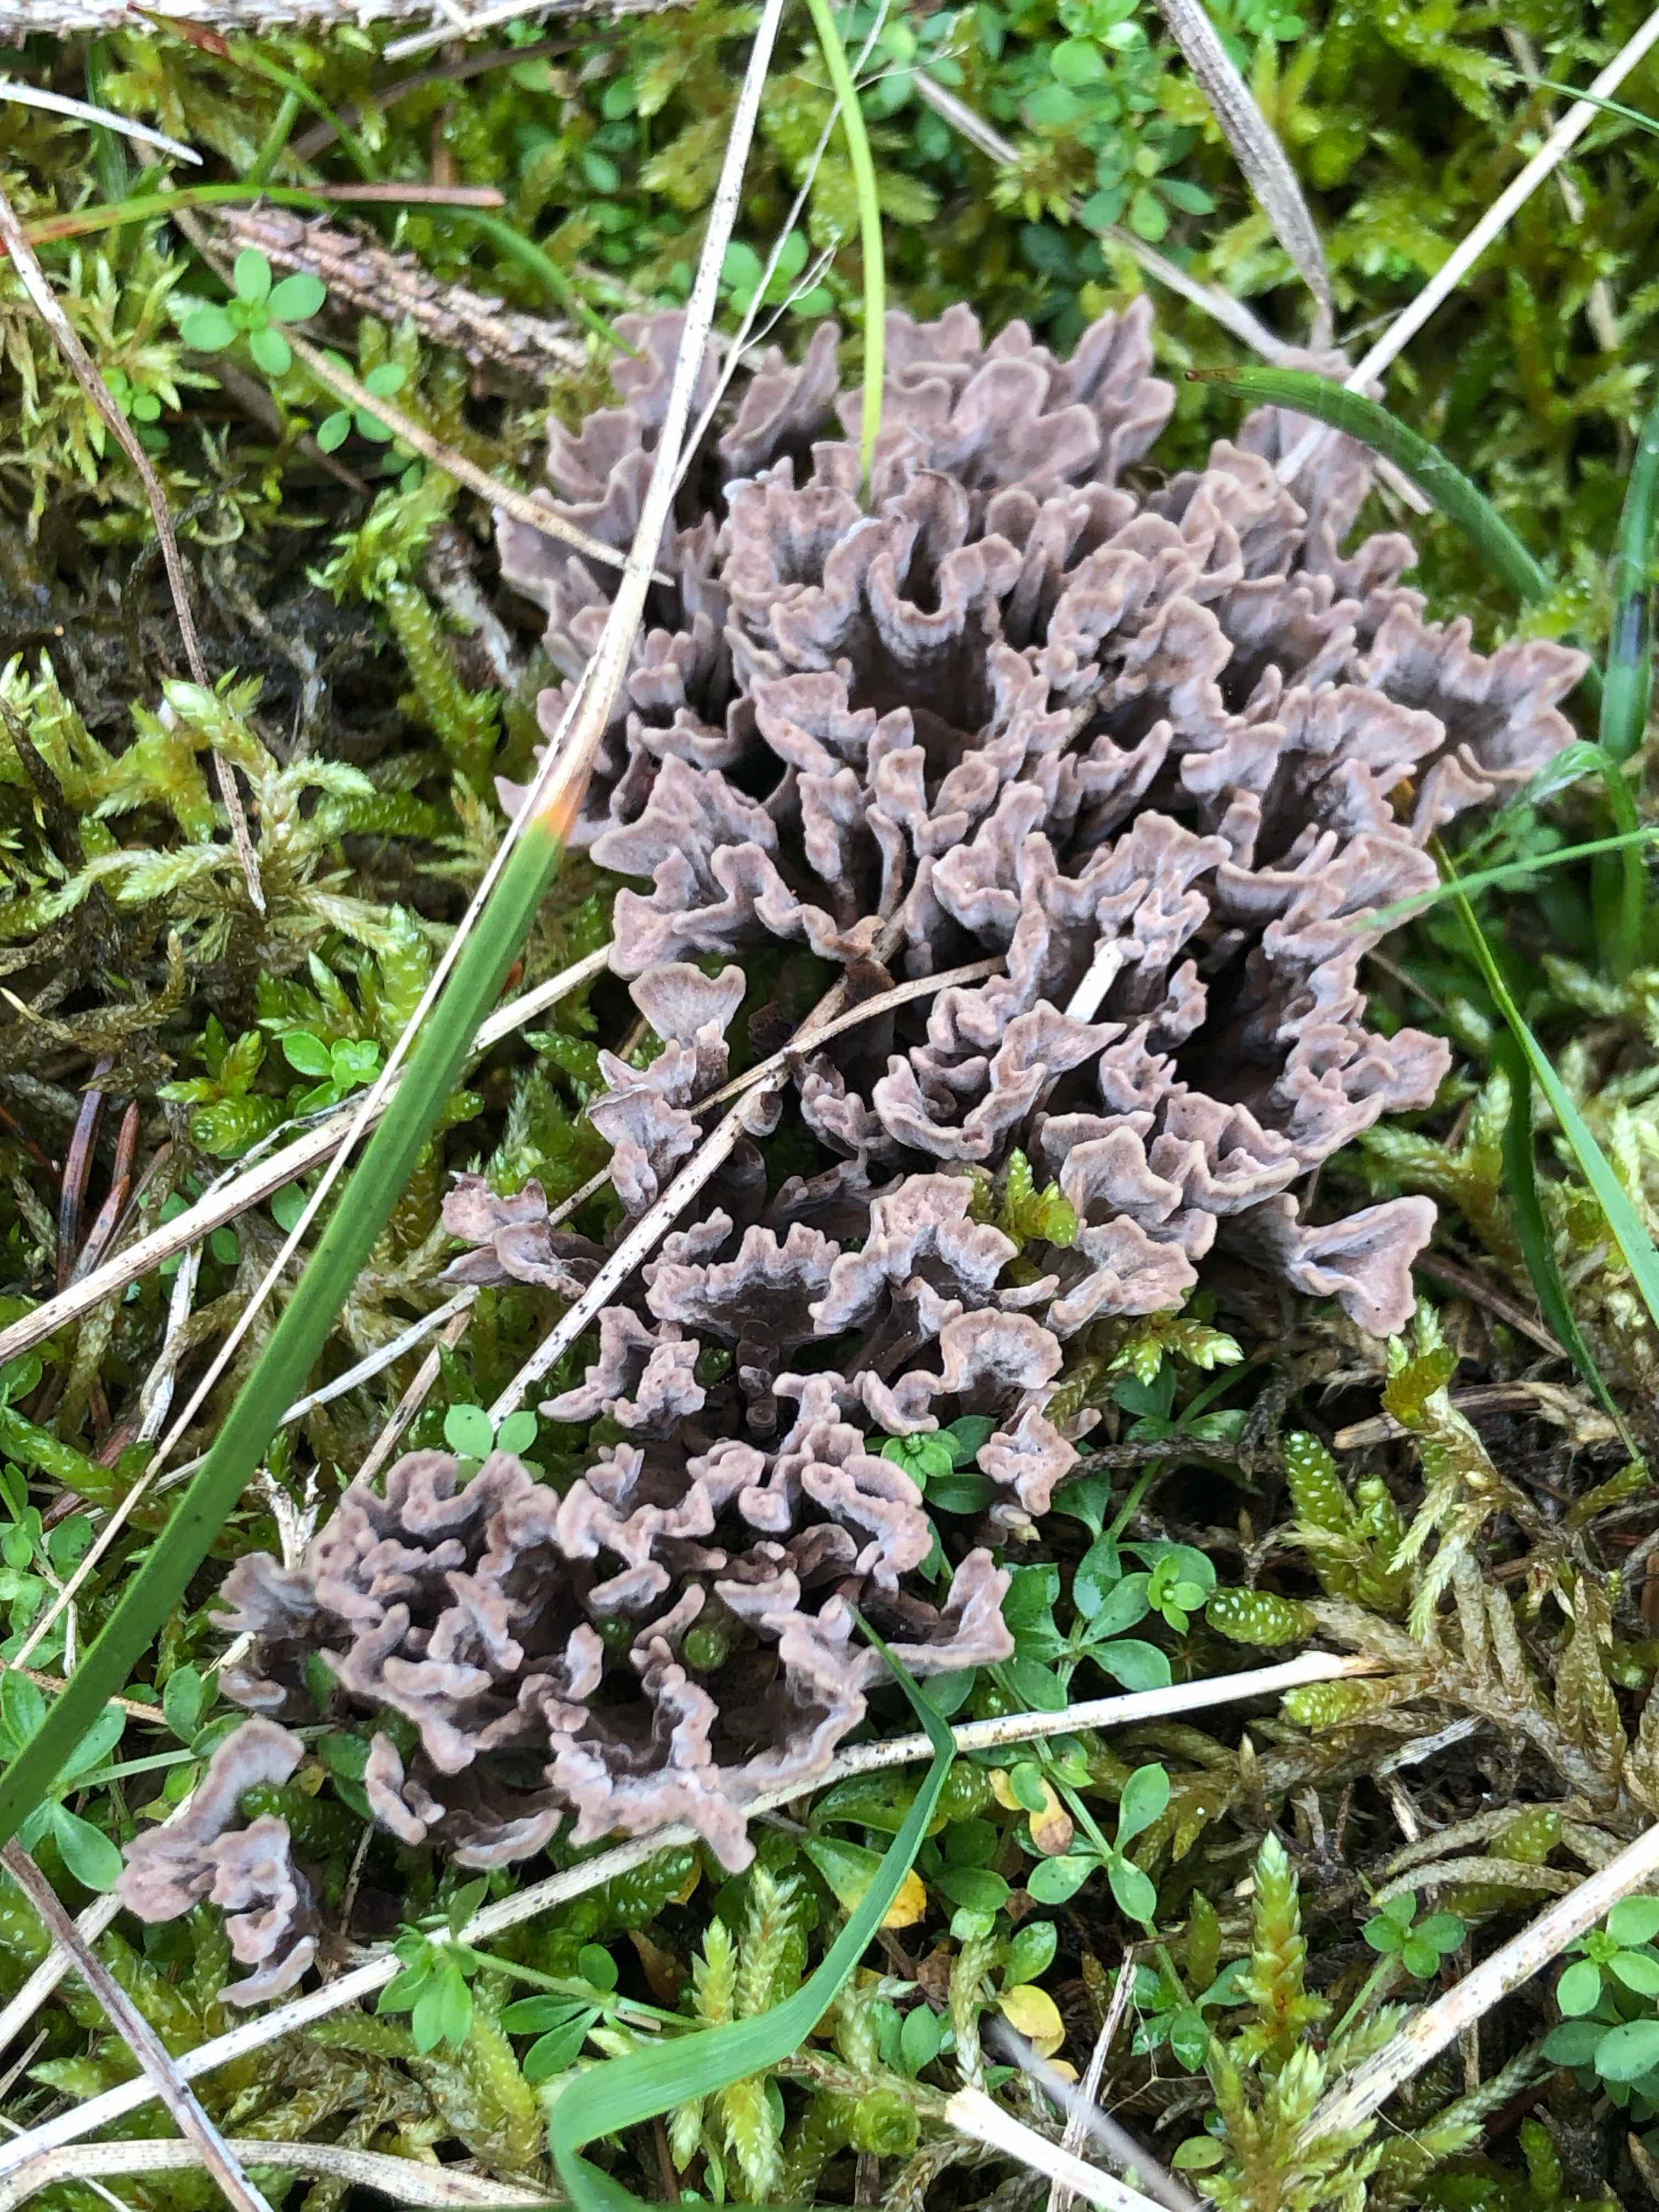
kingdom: Fungi
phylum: Basidiomycota
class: Agaricomycetes
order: Thelephorales
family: Thelephoraceae
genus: Thelephora
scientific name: Thelephora palmata
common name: grenet frynsesvamp
